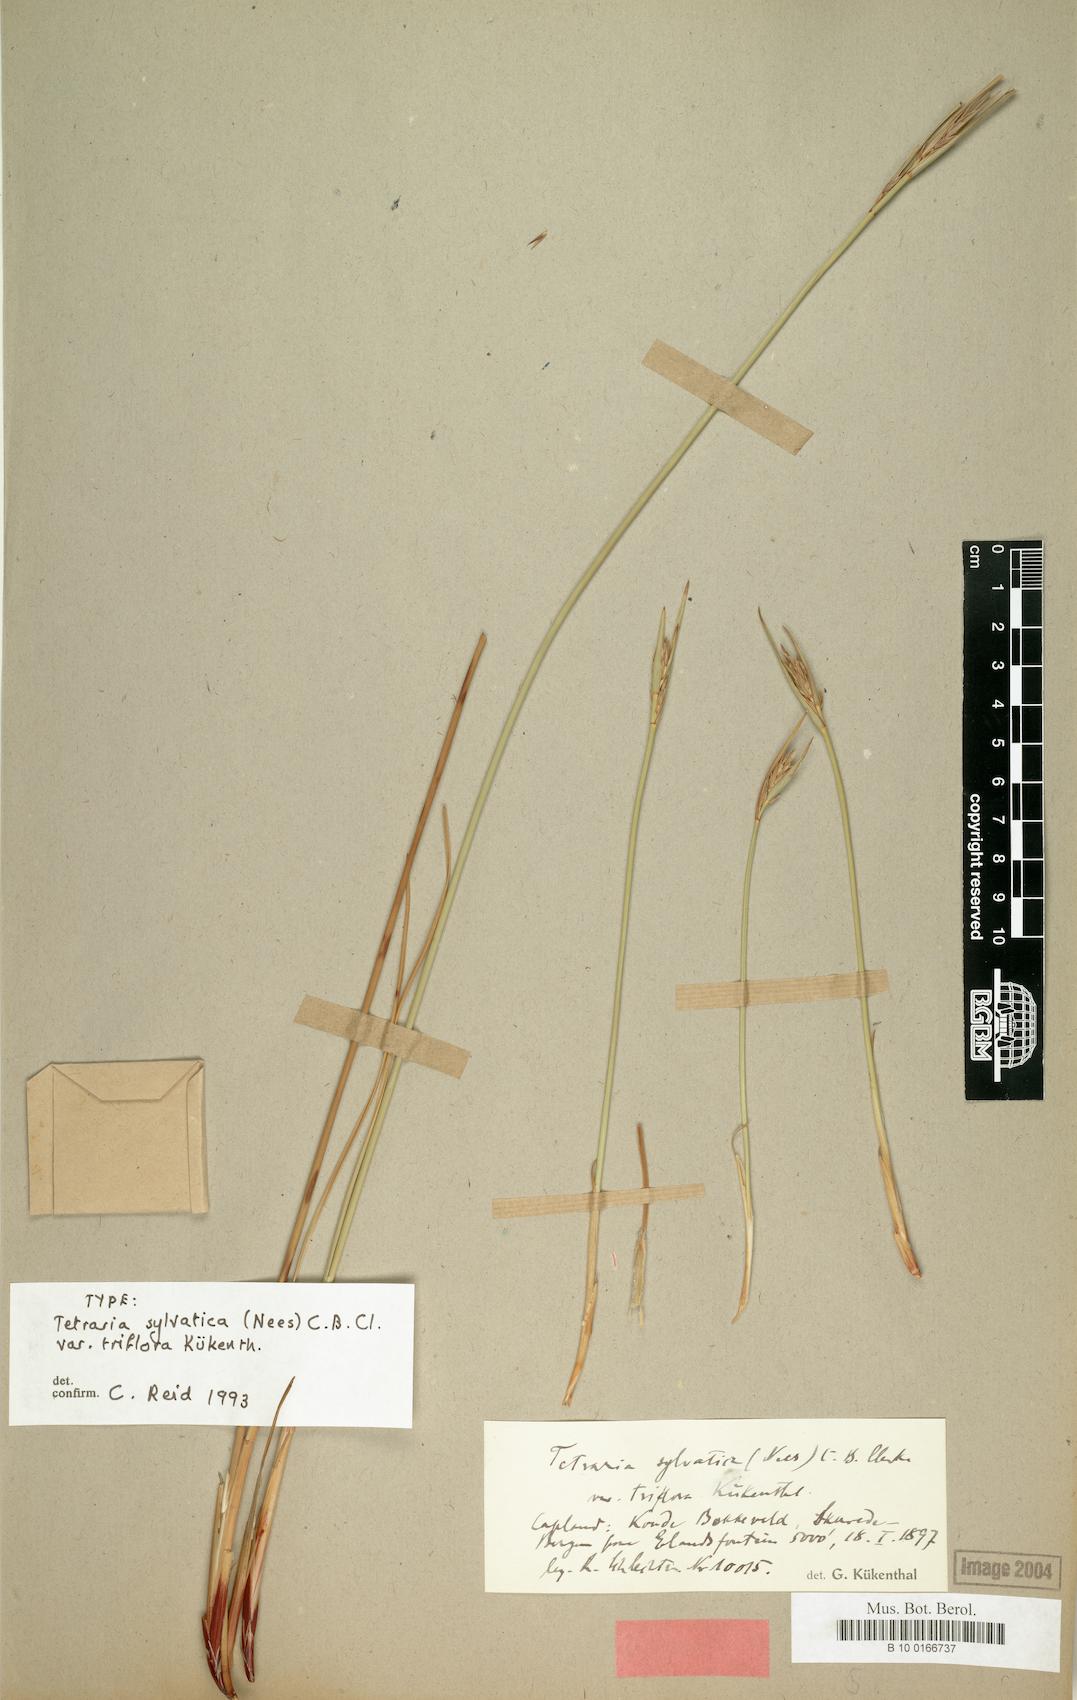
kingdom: Plantae
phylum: Tracheophyta
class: Liliopsida
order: Poales
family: Cyperaceae
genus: Schoenus
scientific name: Schoenus albovaginatus
